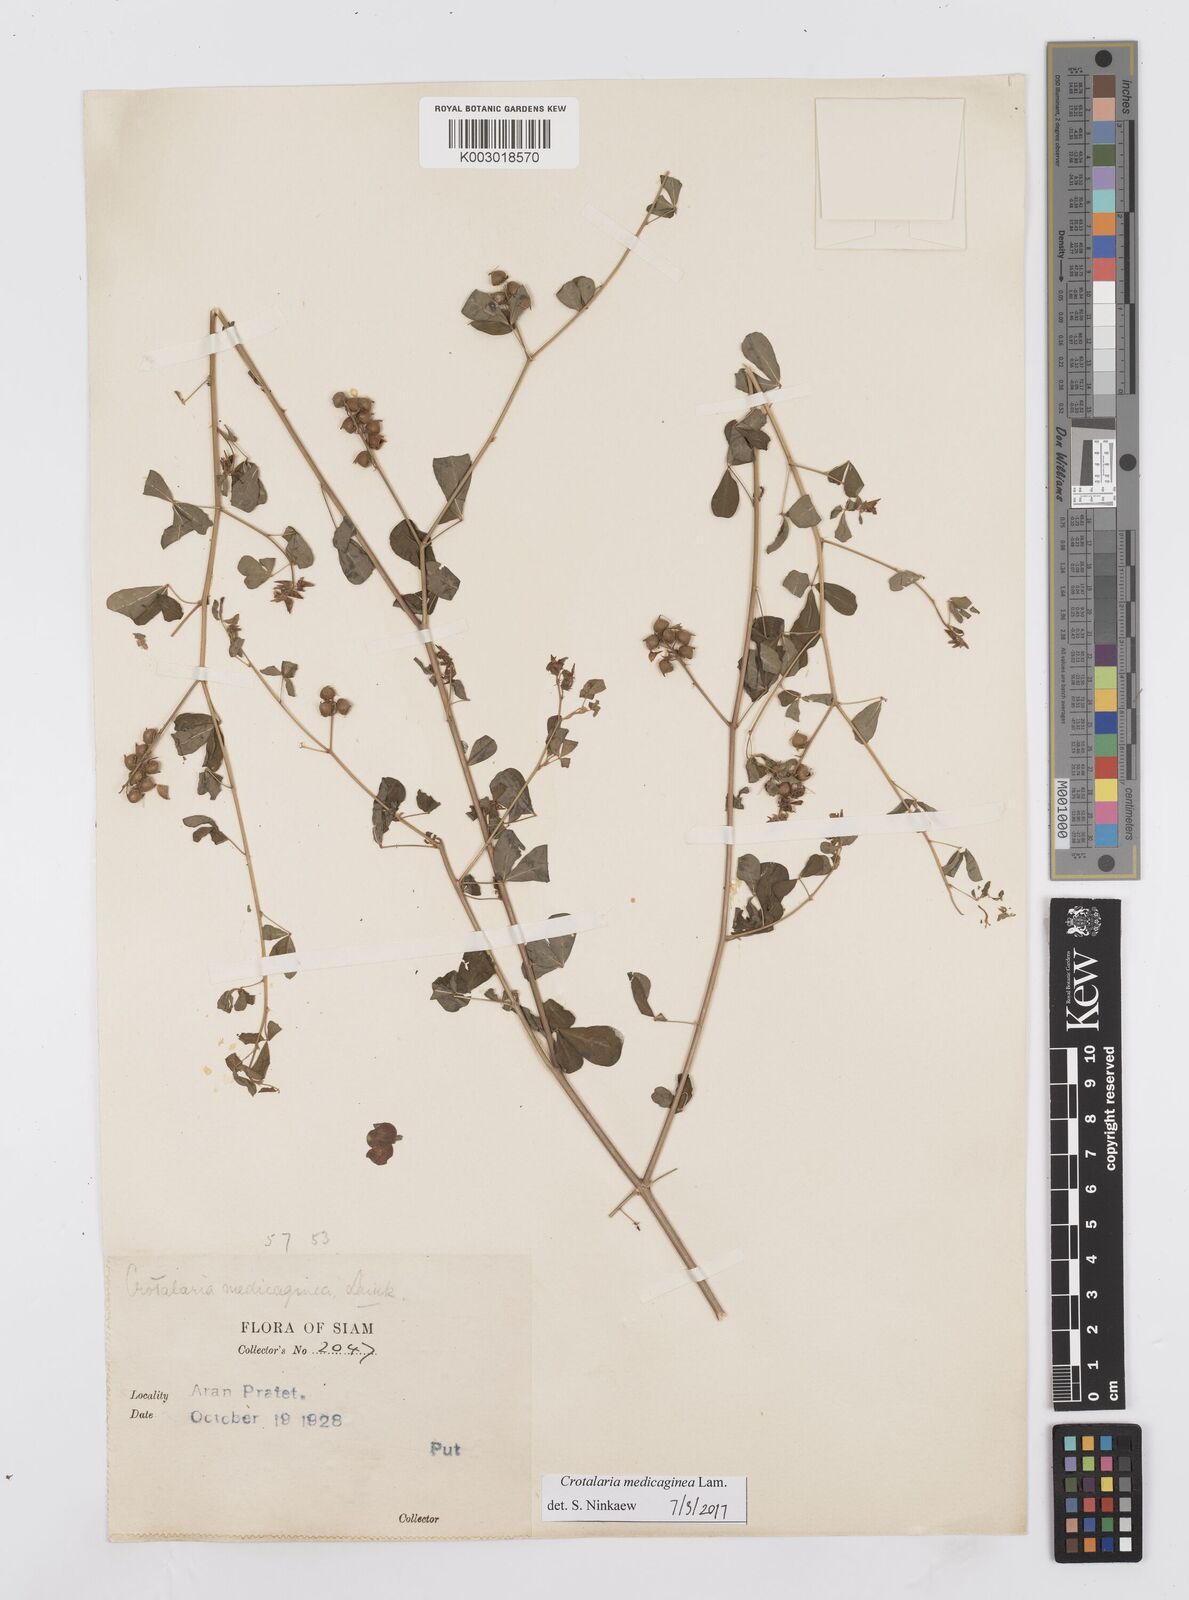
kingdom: Plantae
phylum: Tracheophyta
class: Magnoliopsida
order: Fabales
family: Fabaceae
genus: Crotalaria
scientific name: Crotalaria medicaginea
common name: Trefoil rattlepod
